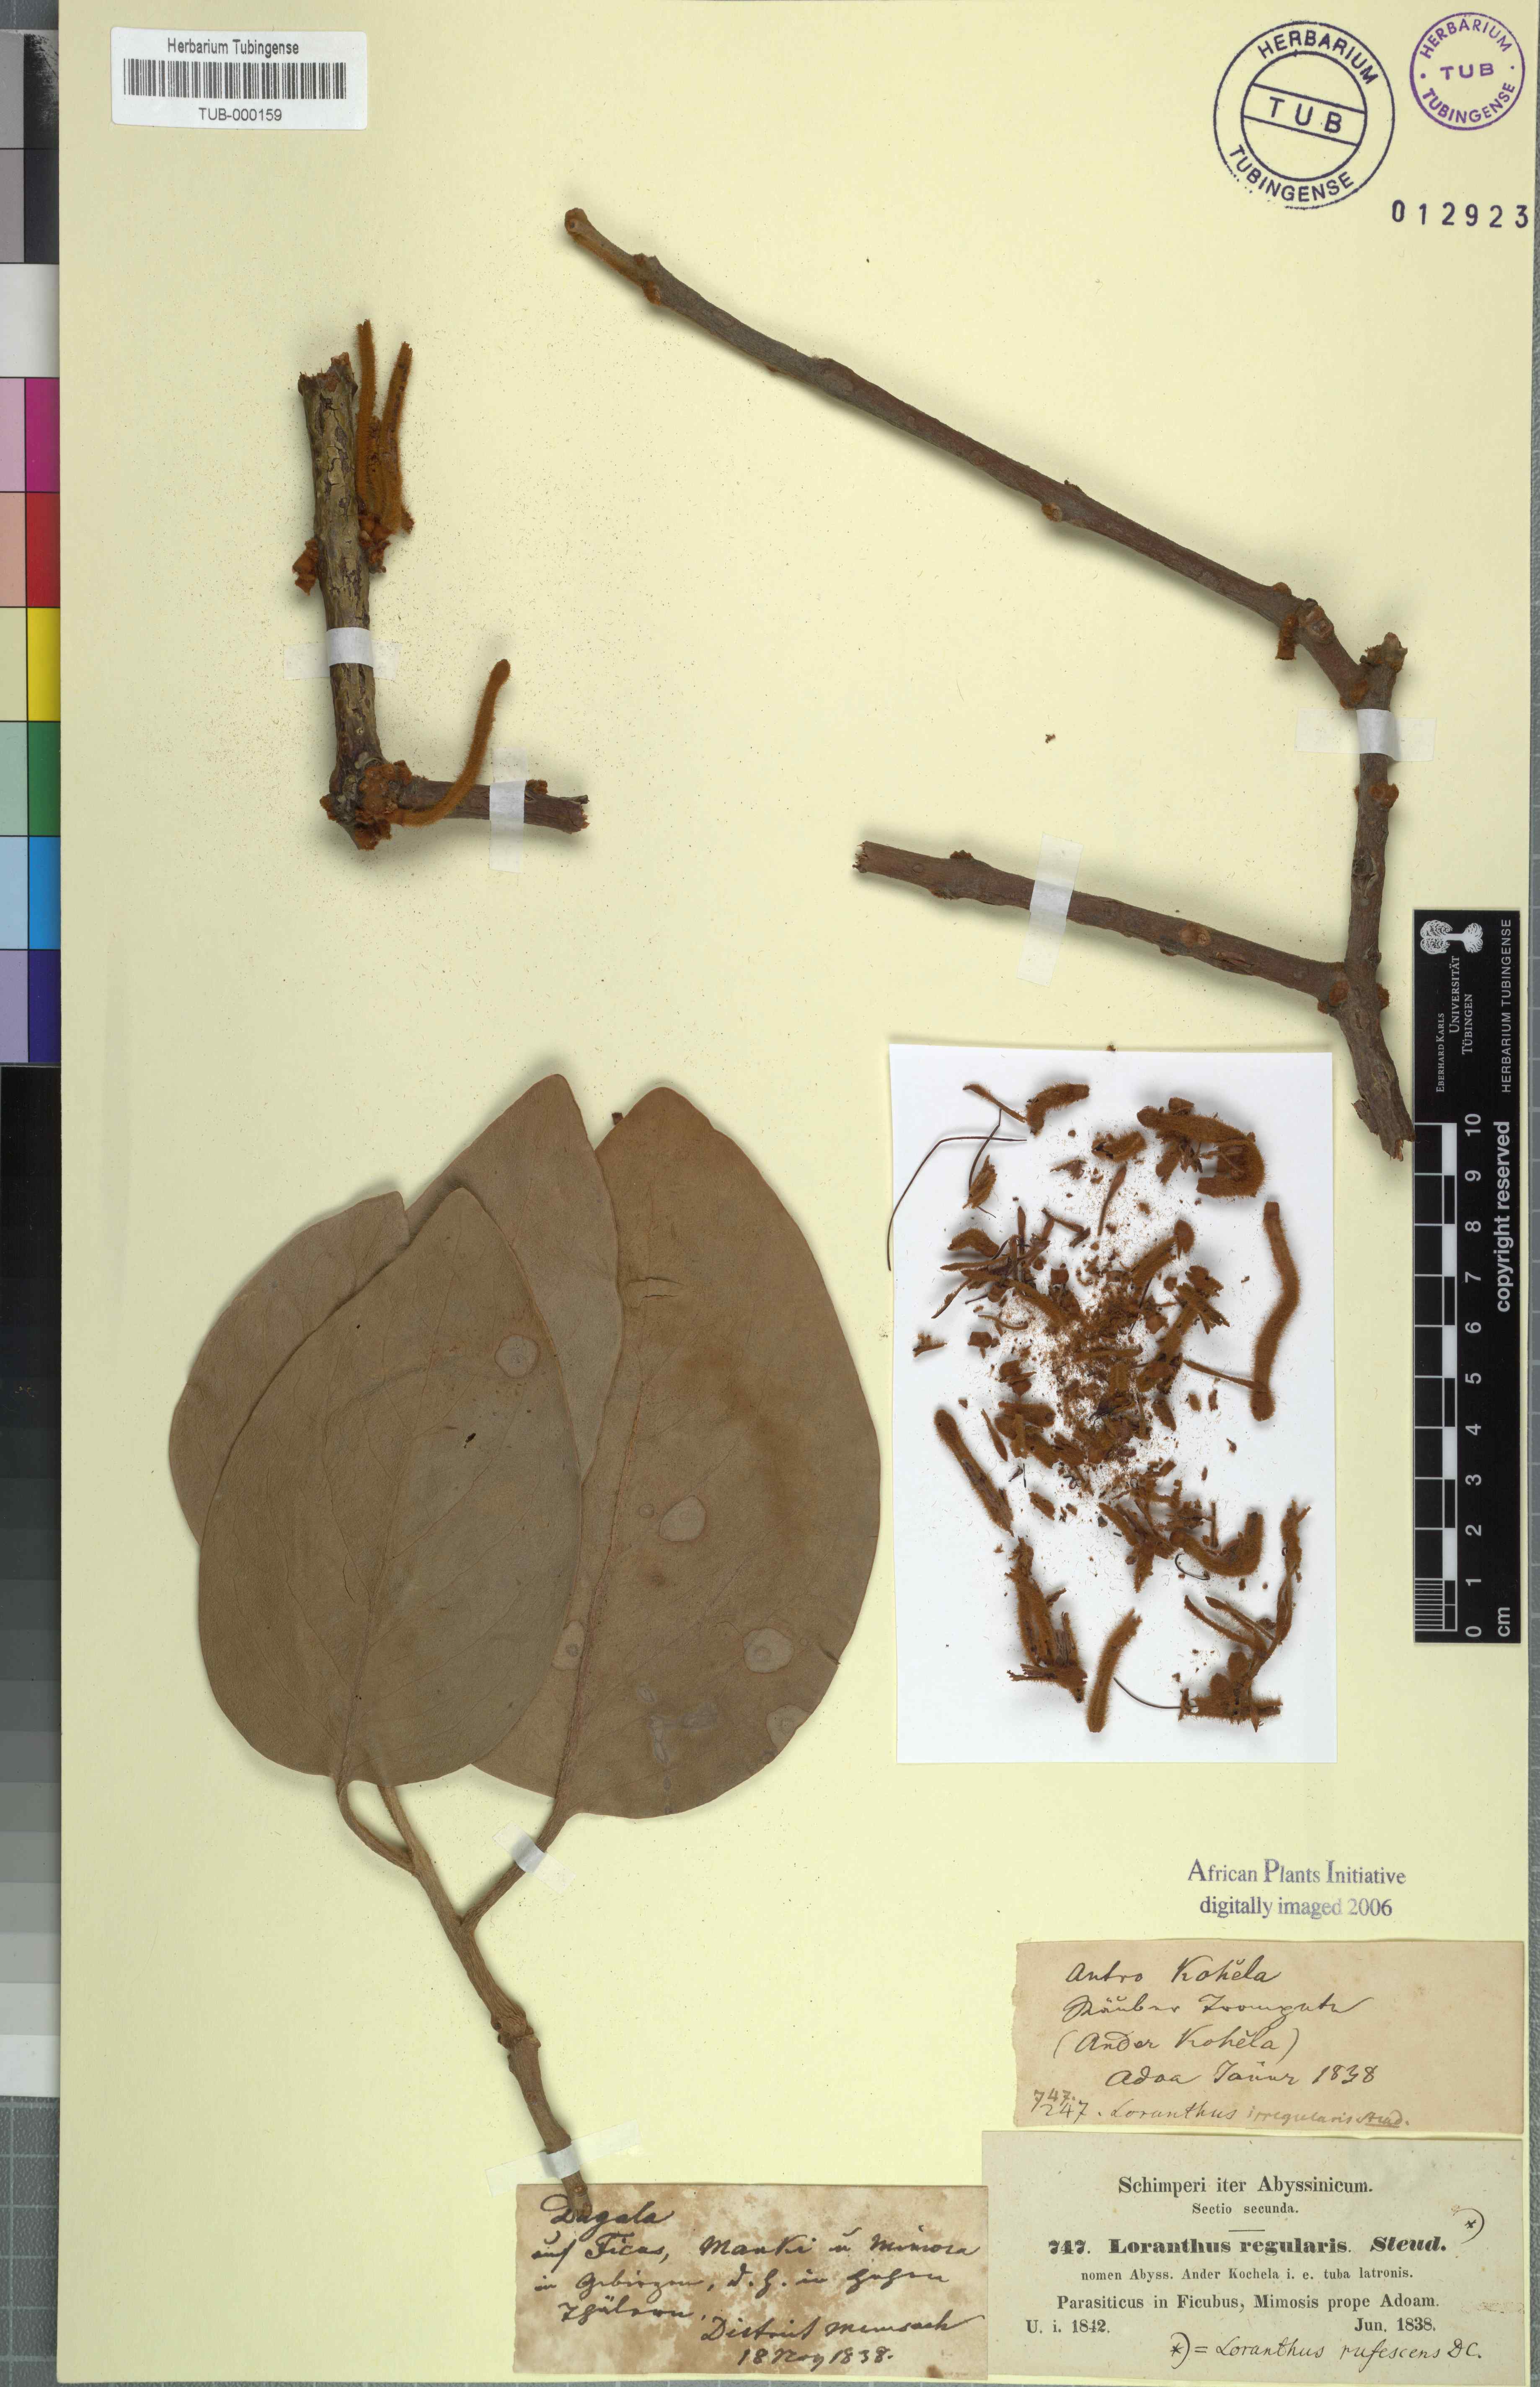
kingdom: Plantae
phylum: Tracheophyta
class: Magnoliopsida
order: Santalales
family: Loranthaceae
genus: Phragmanthera
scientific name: Phragmanthera rufescens
